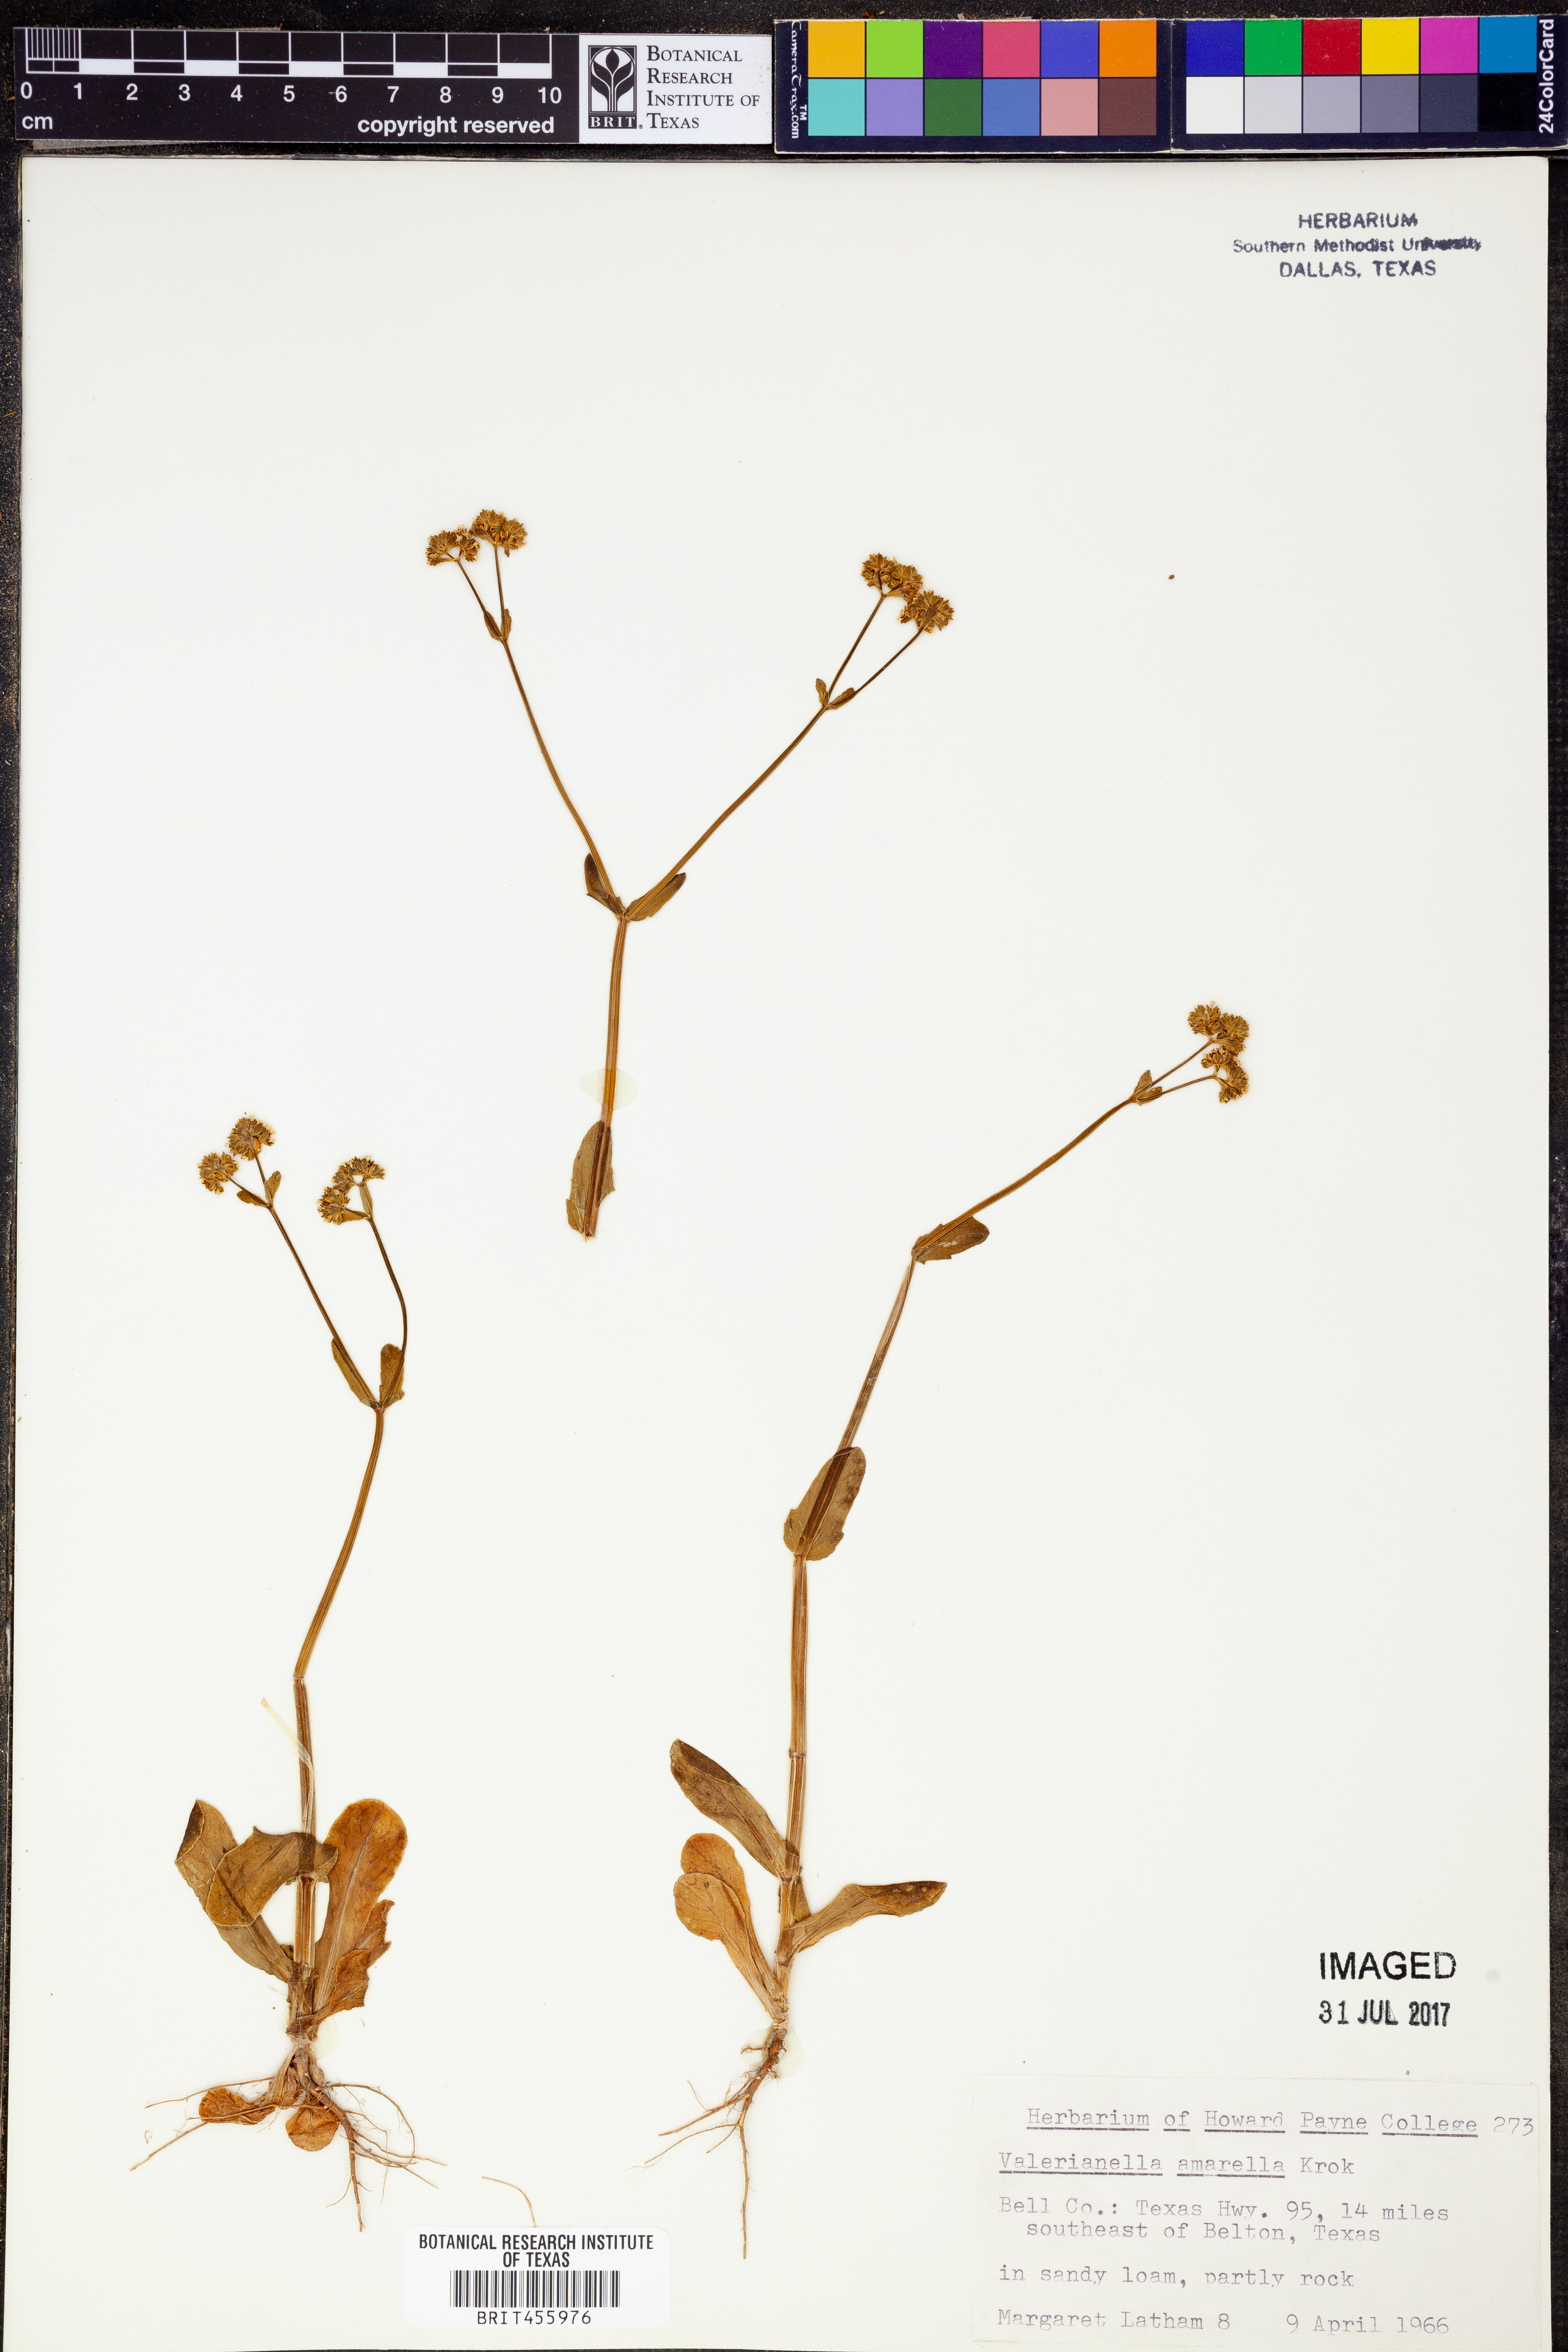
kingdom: Plantae
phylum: Tracheophyta
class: Magnoliopsida
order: Dipsacales
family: Caprifoliaceae
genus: Valerianella
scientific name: Valerianella amarella
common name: Hariy cornsalad
